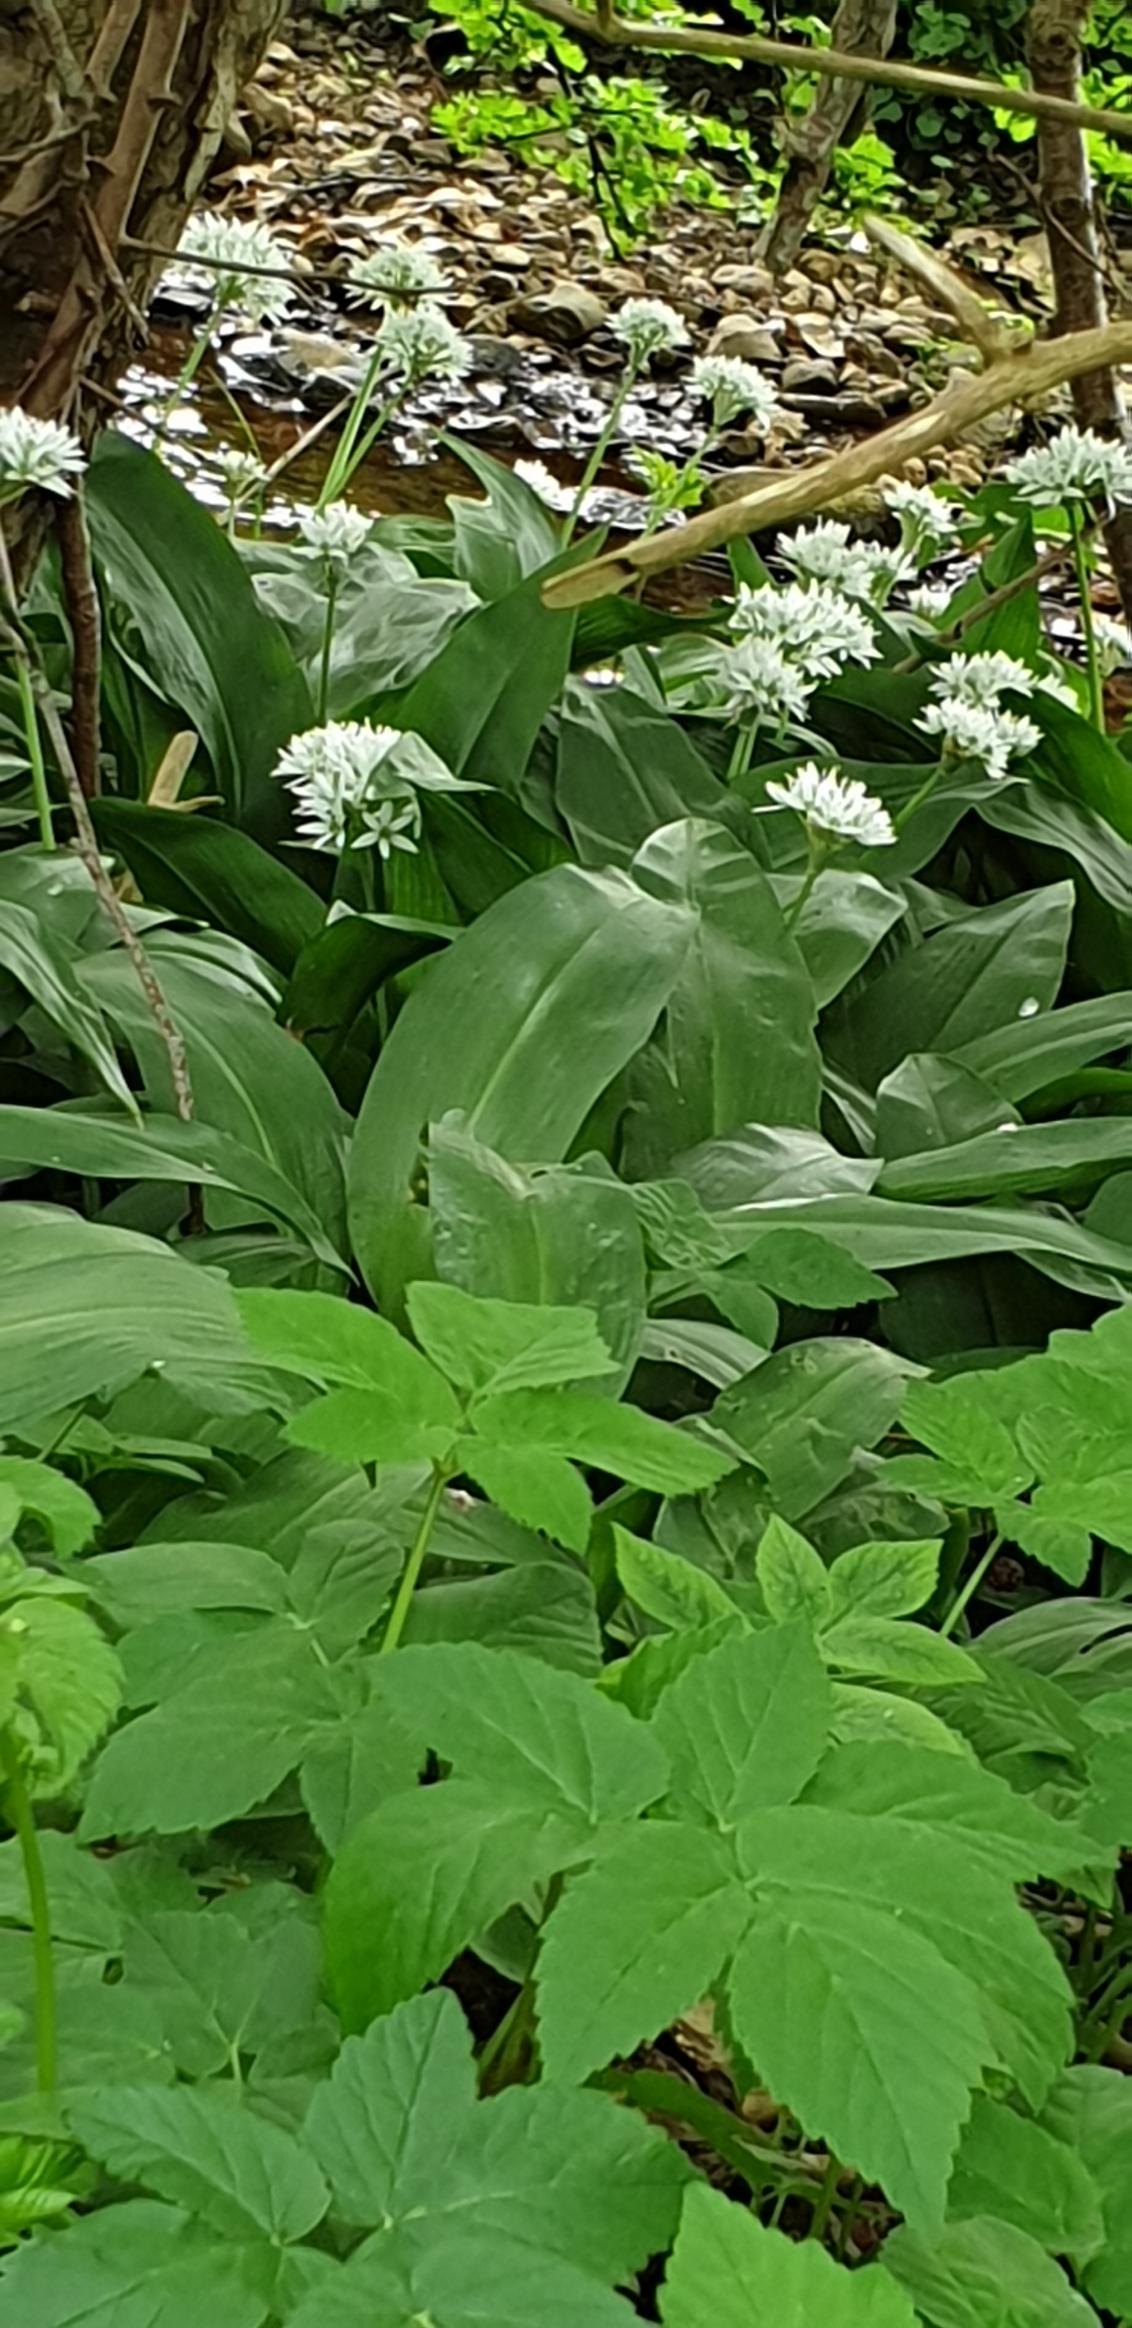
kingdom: Plantae
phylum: Tracheophyta
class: Liliopsida
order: Asparagales
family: Amaryllidaceae
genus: Allium
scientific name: Allium ursinum
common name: Rams-løg
